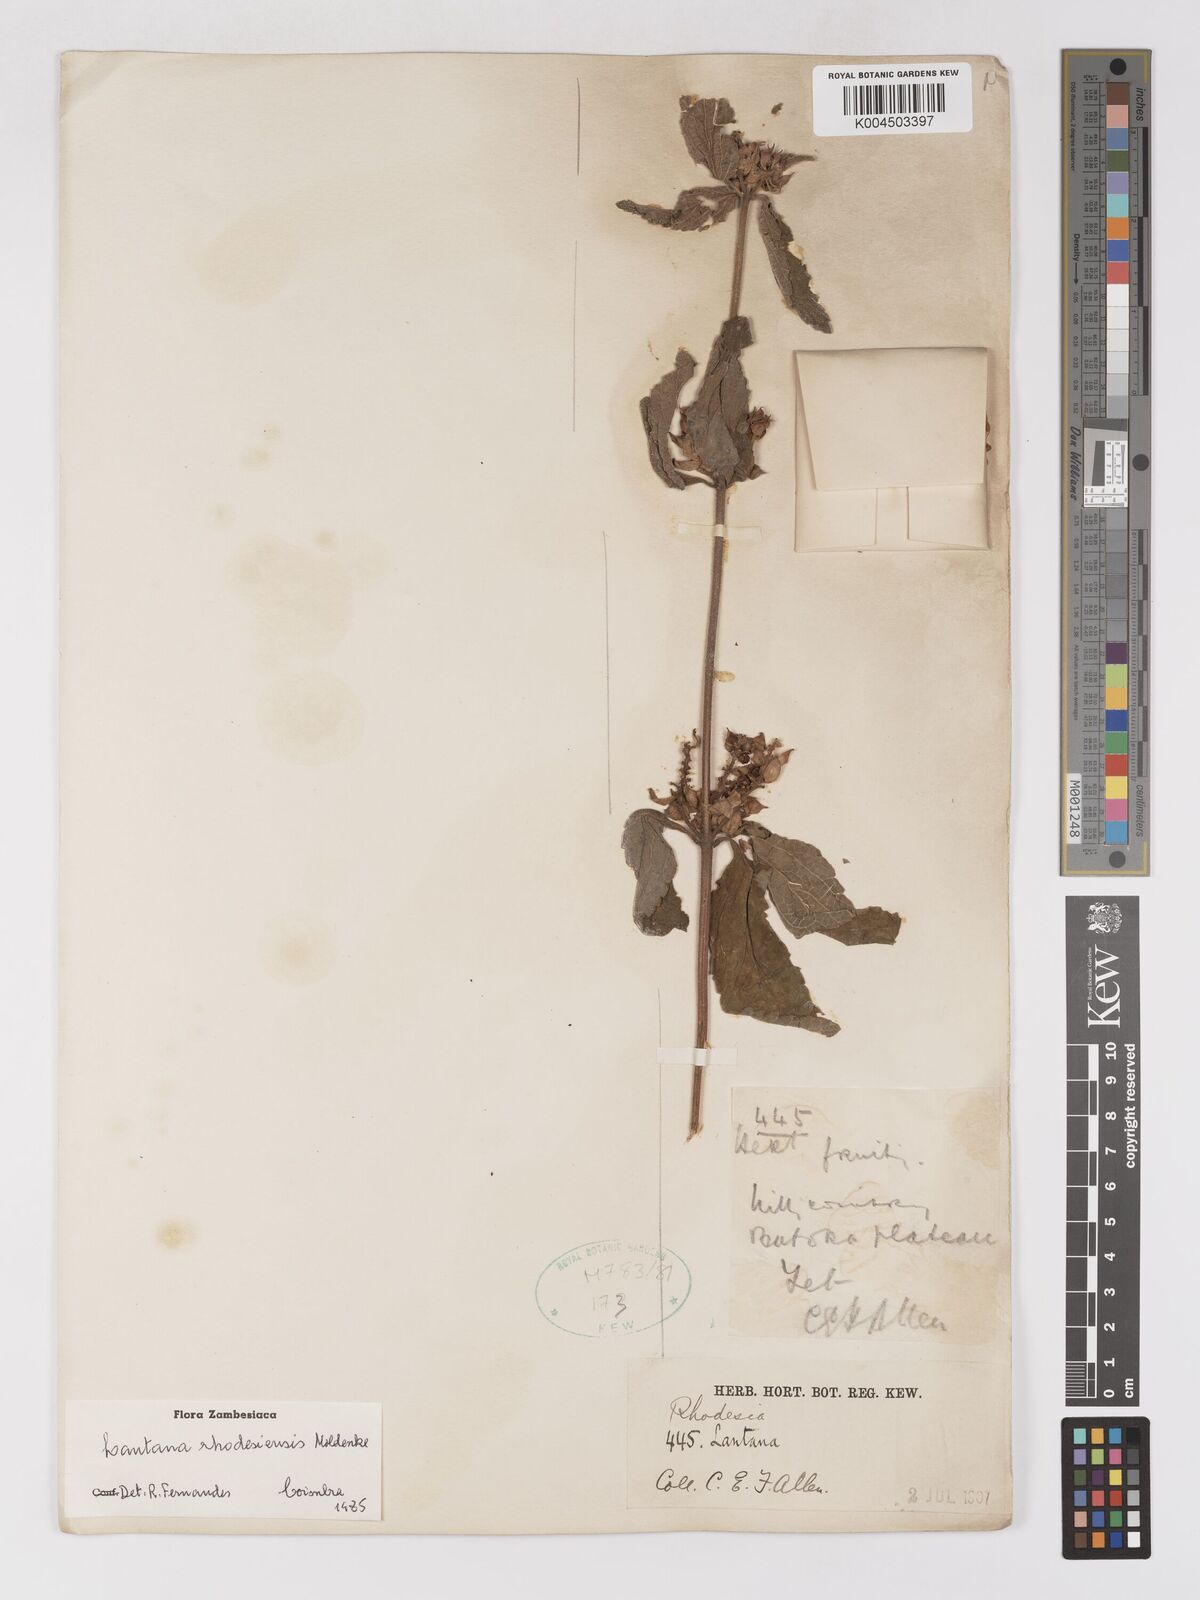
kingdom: Plantae
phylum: Tracheophyta
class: Magnoliopsida
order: Lamiales
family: Verbenaceae
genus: Lantana
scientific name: Lantana ukambensis
